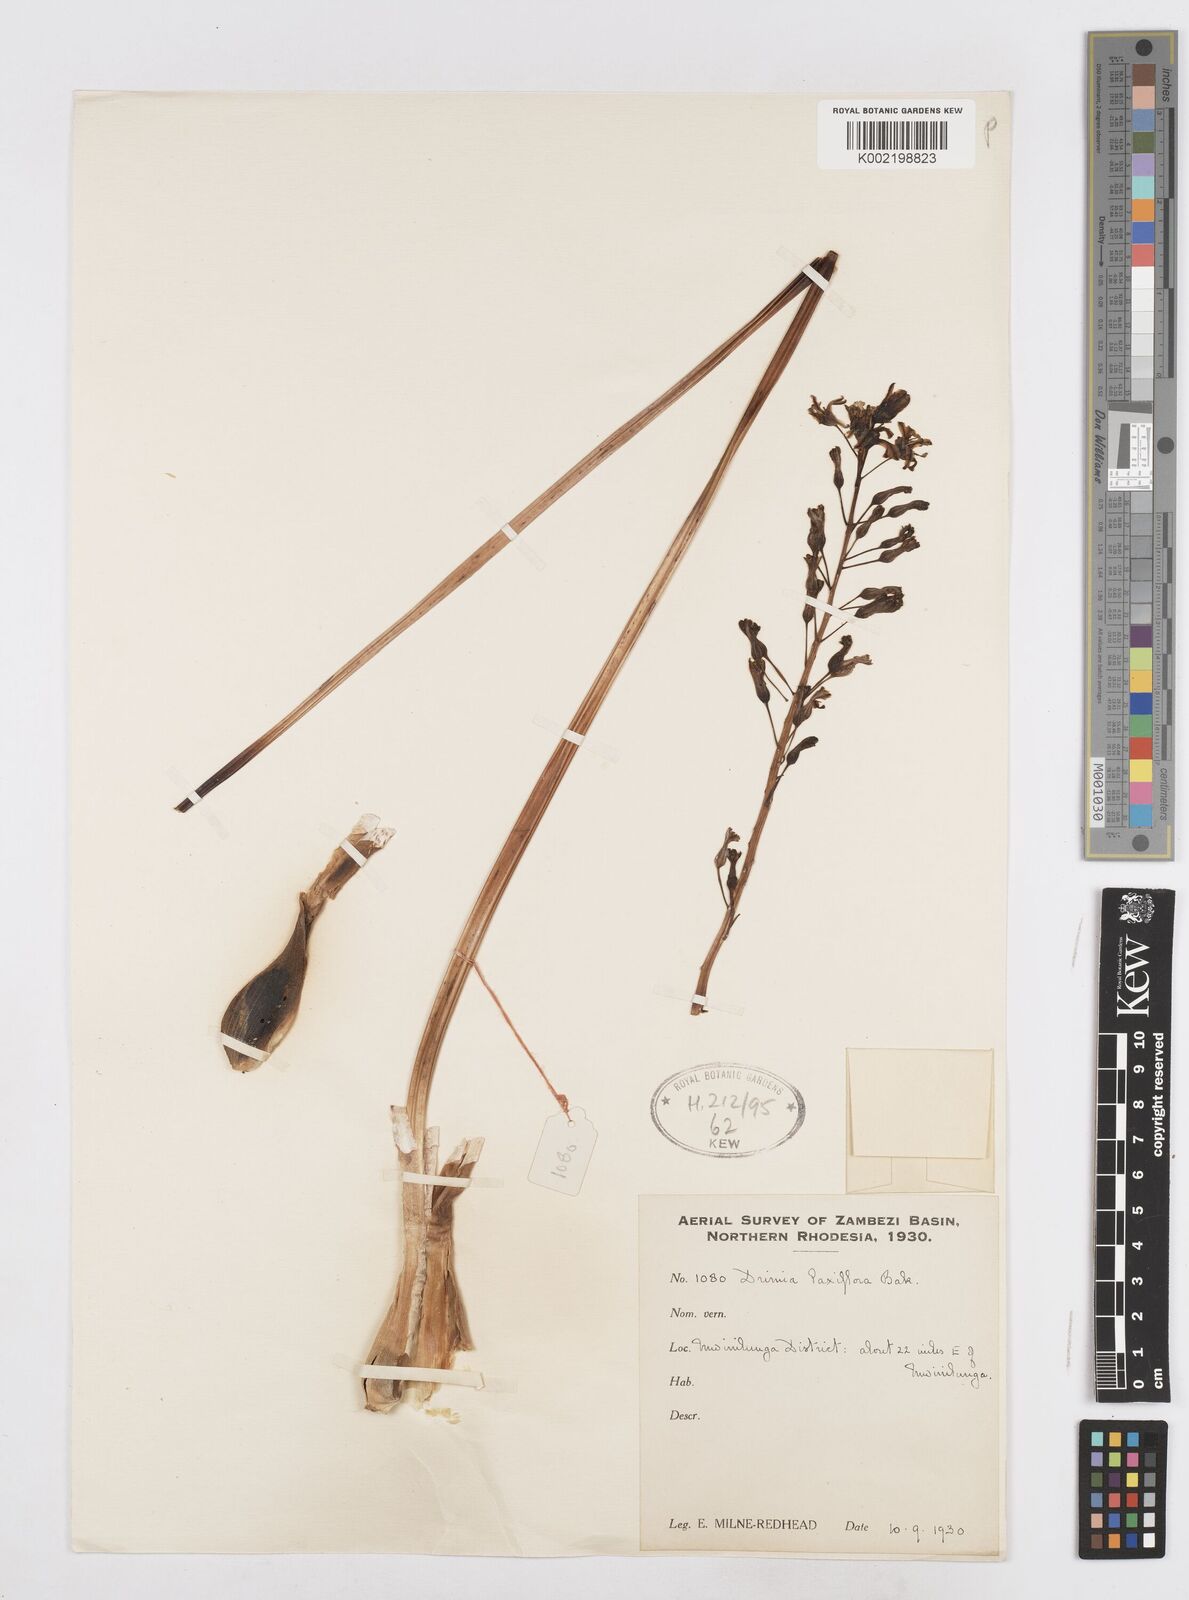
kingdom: Plantae
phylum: Tracheophyta
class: Liliopsida
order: Asparagales
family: Asparagaceae
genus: Drimia
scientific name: Drimia
